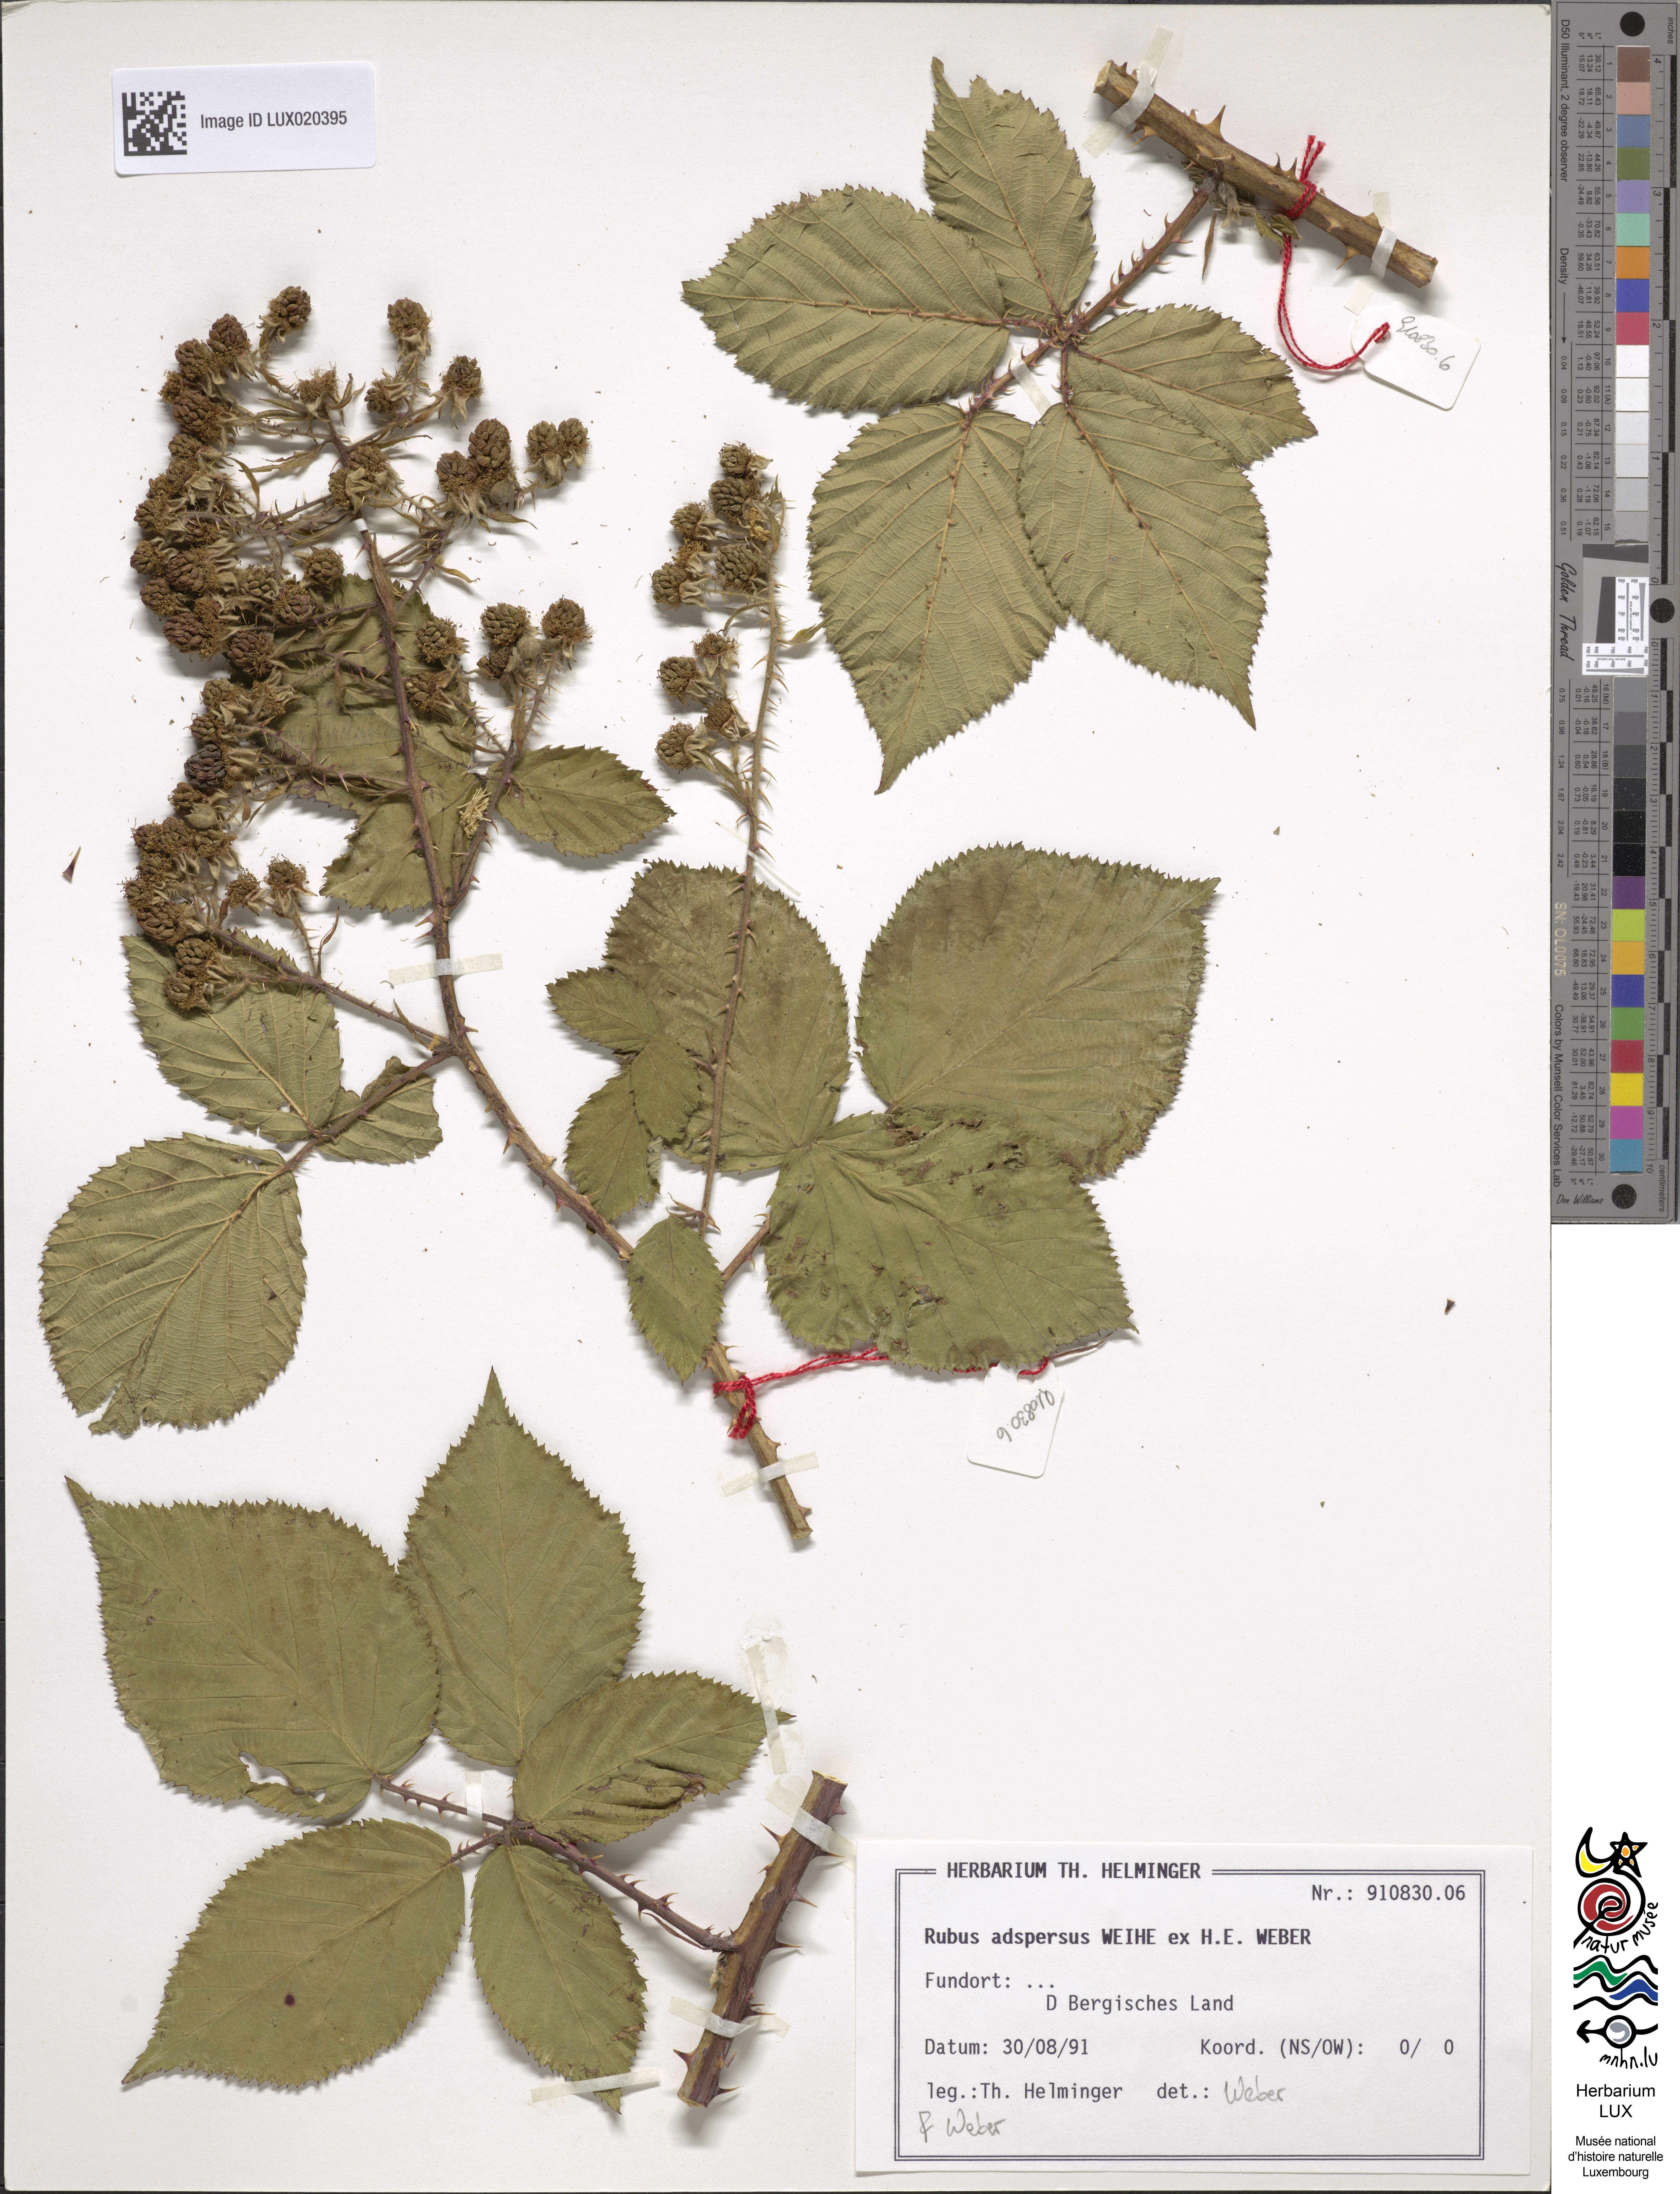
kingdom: Plantae
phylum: Tracheophyta
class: Magnoliopsida
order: Rosales
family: Rosaceae
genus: Rubus
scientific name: Rubus adspersus
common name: Hornbeam-leaved bramble
